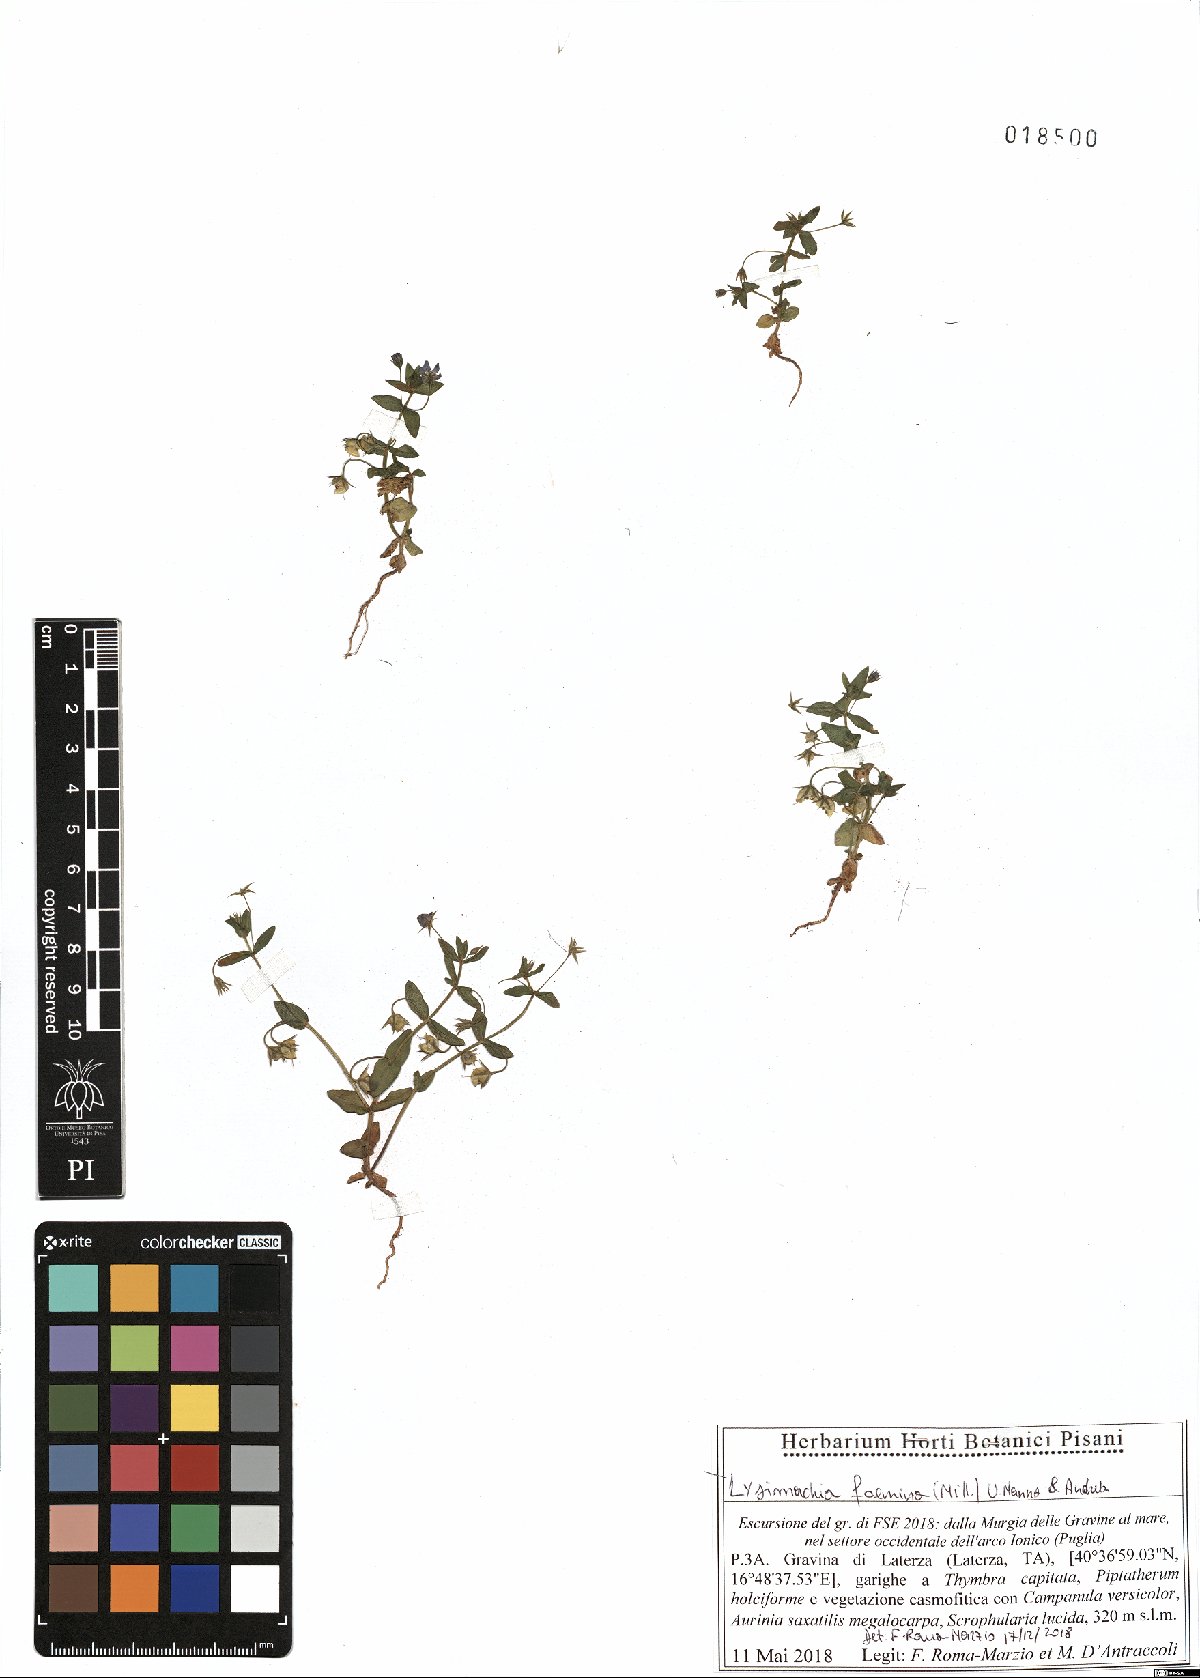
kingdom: Plantae
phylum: Tracheophyta
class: Magnoliopsida
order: Ericales
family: Primulaceae
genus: Lysimachia
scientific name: Lysimachia foemina
